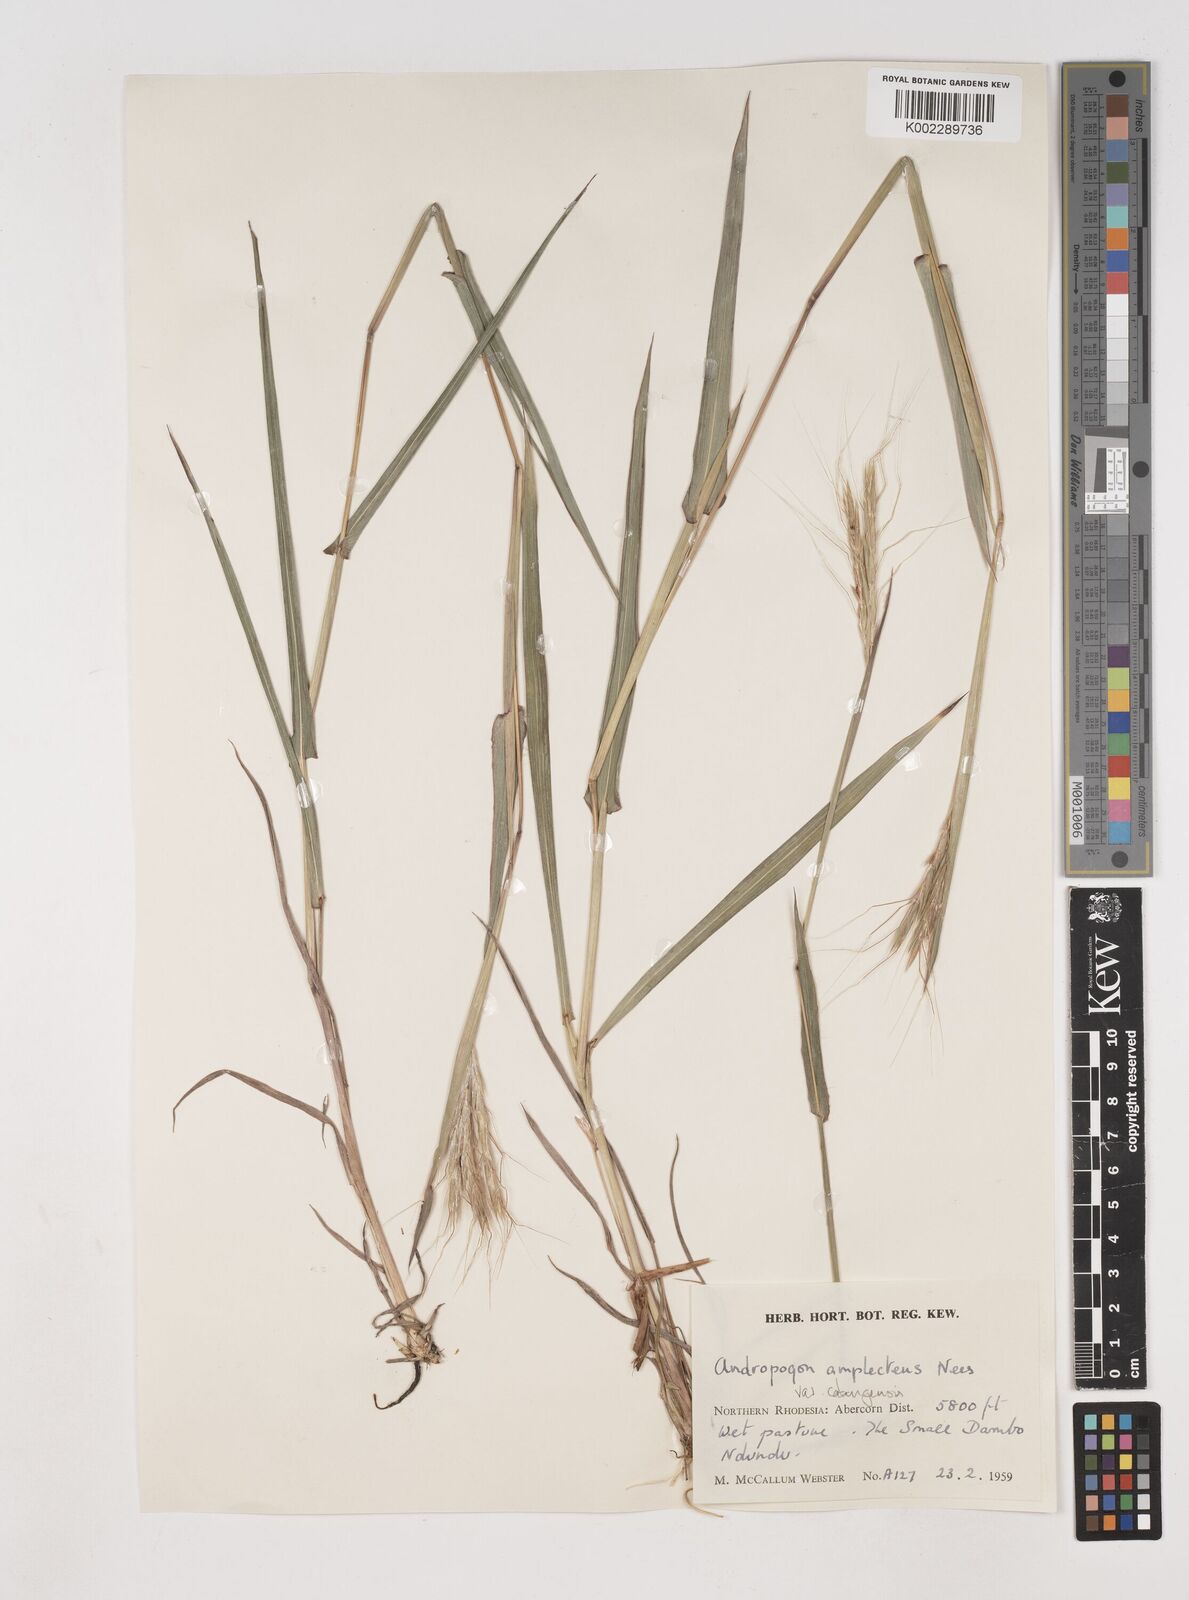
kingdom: Plantae
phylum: Tracheophyta
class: Liliopsida
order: Poales
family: Poaceae
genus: Diheteropogon
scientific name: Diheteropogon amplectens
